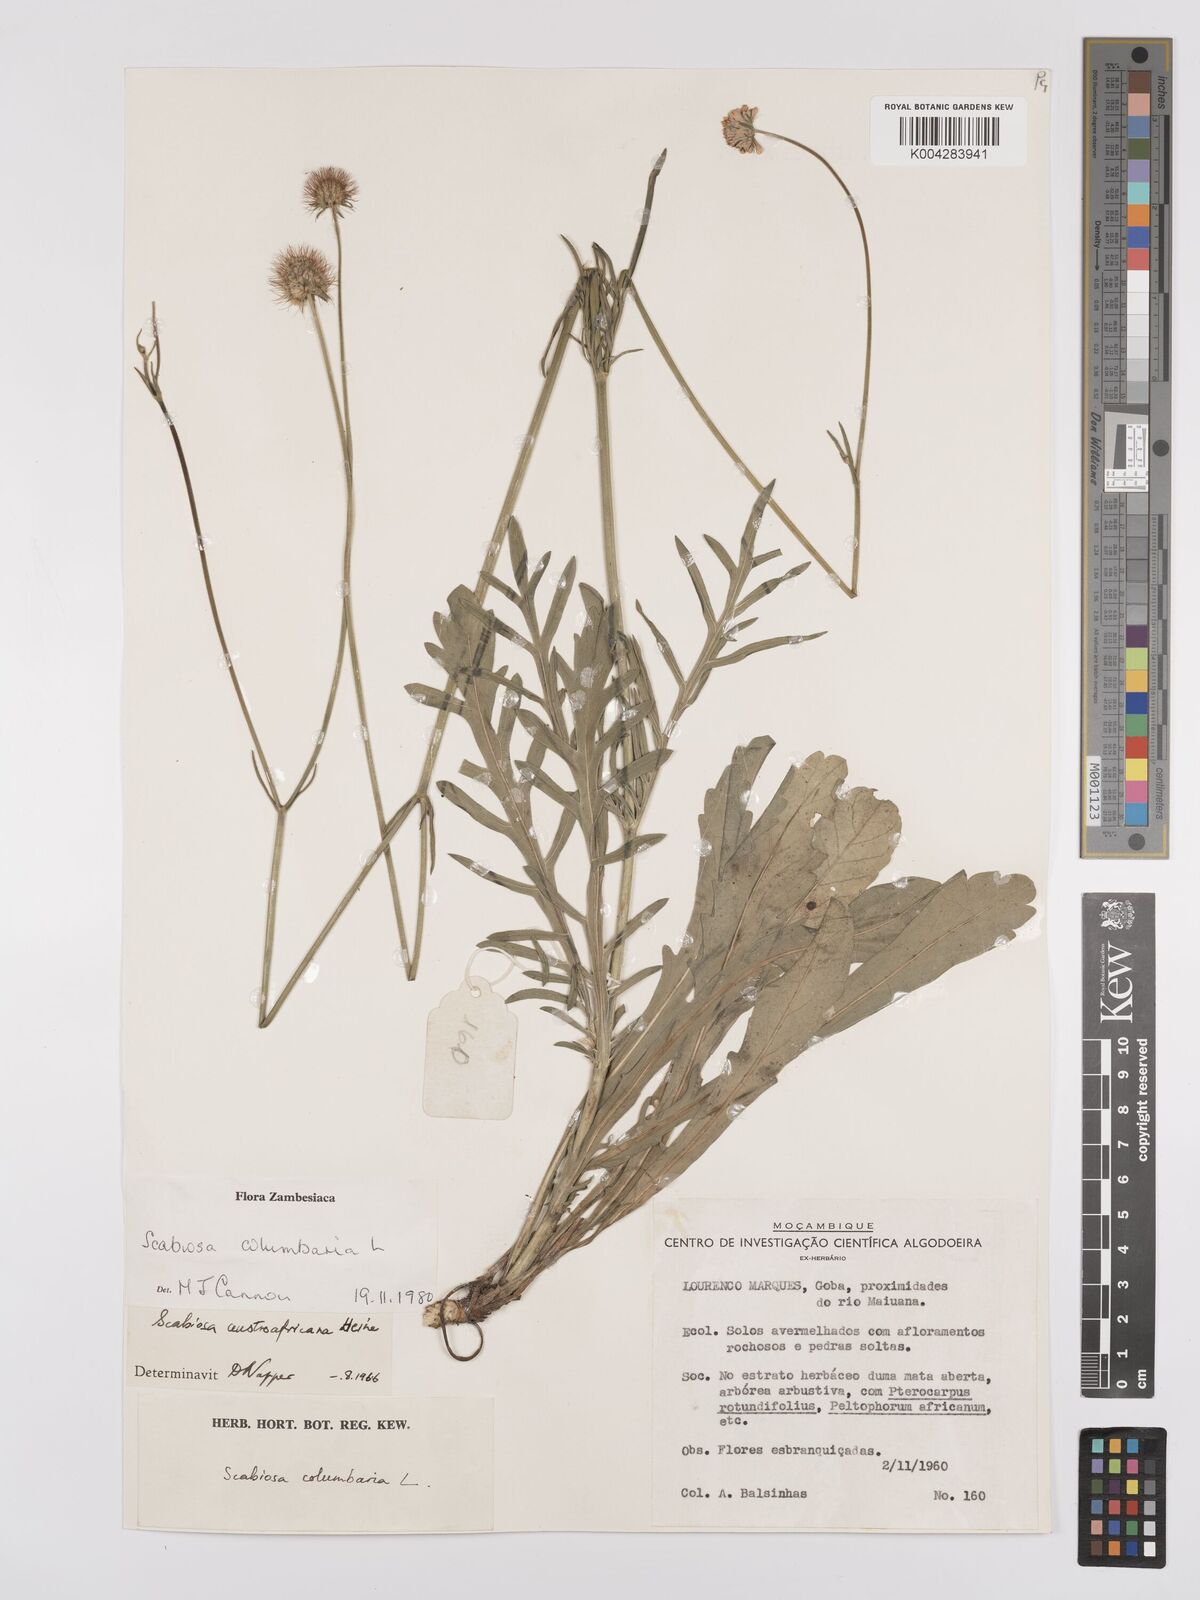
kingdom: Plantae
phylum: Tracheophyta
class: Magnoliopsida
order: Dipsacales
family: Caprifoliaceae
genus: Scabiosa
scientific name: Scabiosa austroafricana
